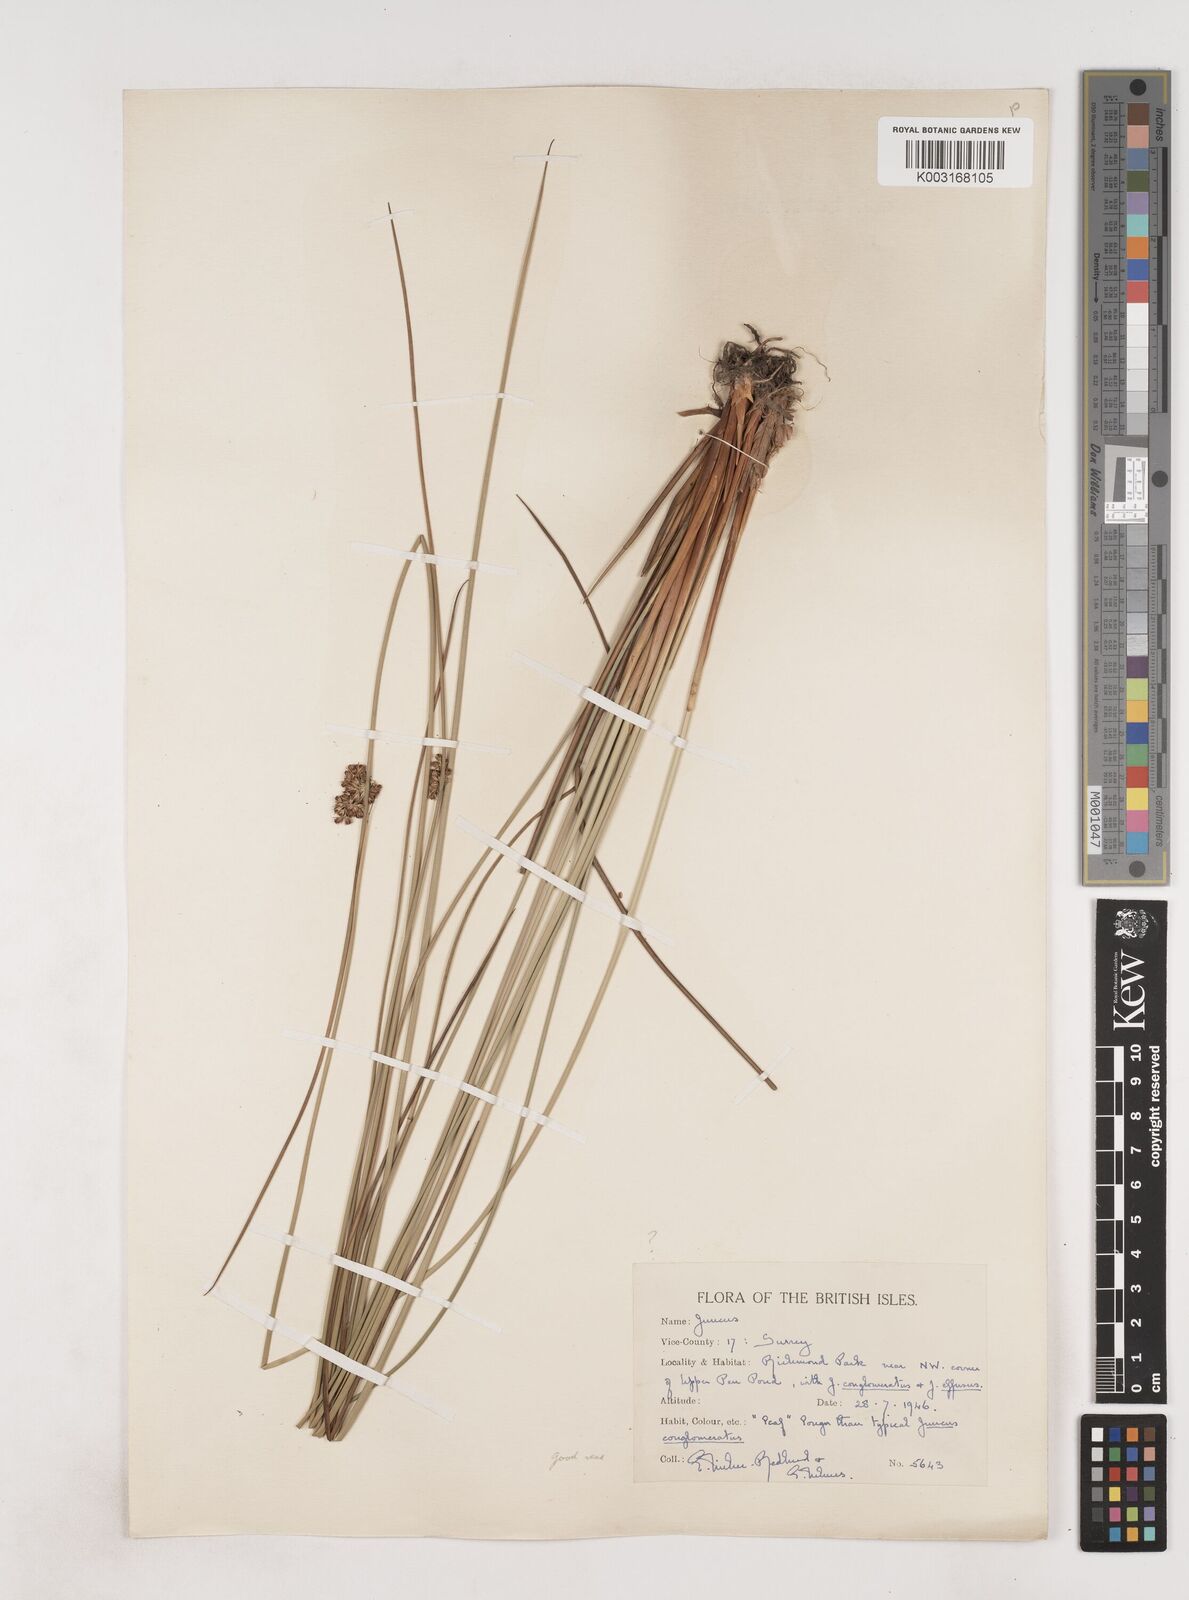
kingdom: Plantae
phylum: Tracheophyta
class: Liliopsida
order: Poales
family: Juncaceae
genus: Juncus
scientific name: Juncus conglomeratus
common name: Compact rush
